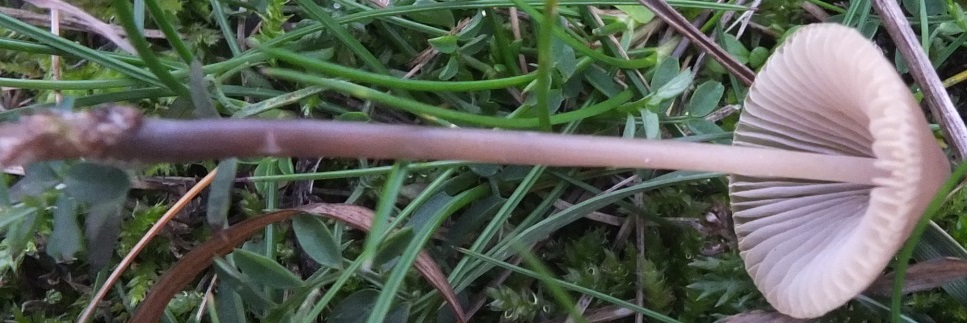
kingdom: Fungi
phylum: Basidiomycota
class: Agaricomycetes
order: Agaricales
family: Mycenaceae
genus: Mycena
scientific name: Mycena flavescens
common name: grågul huesvamp
